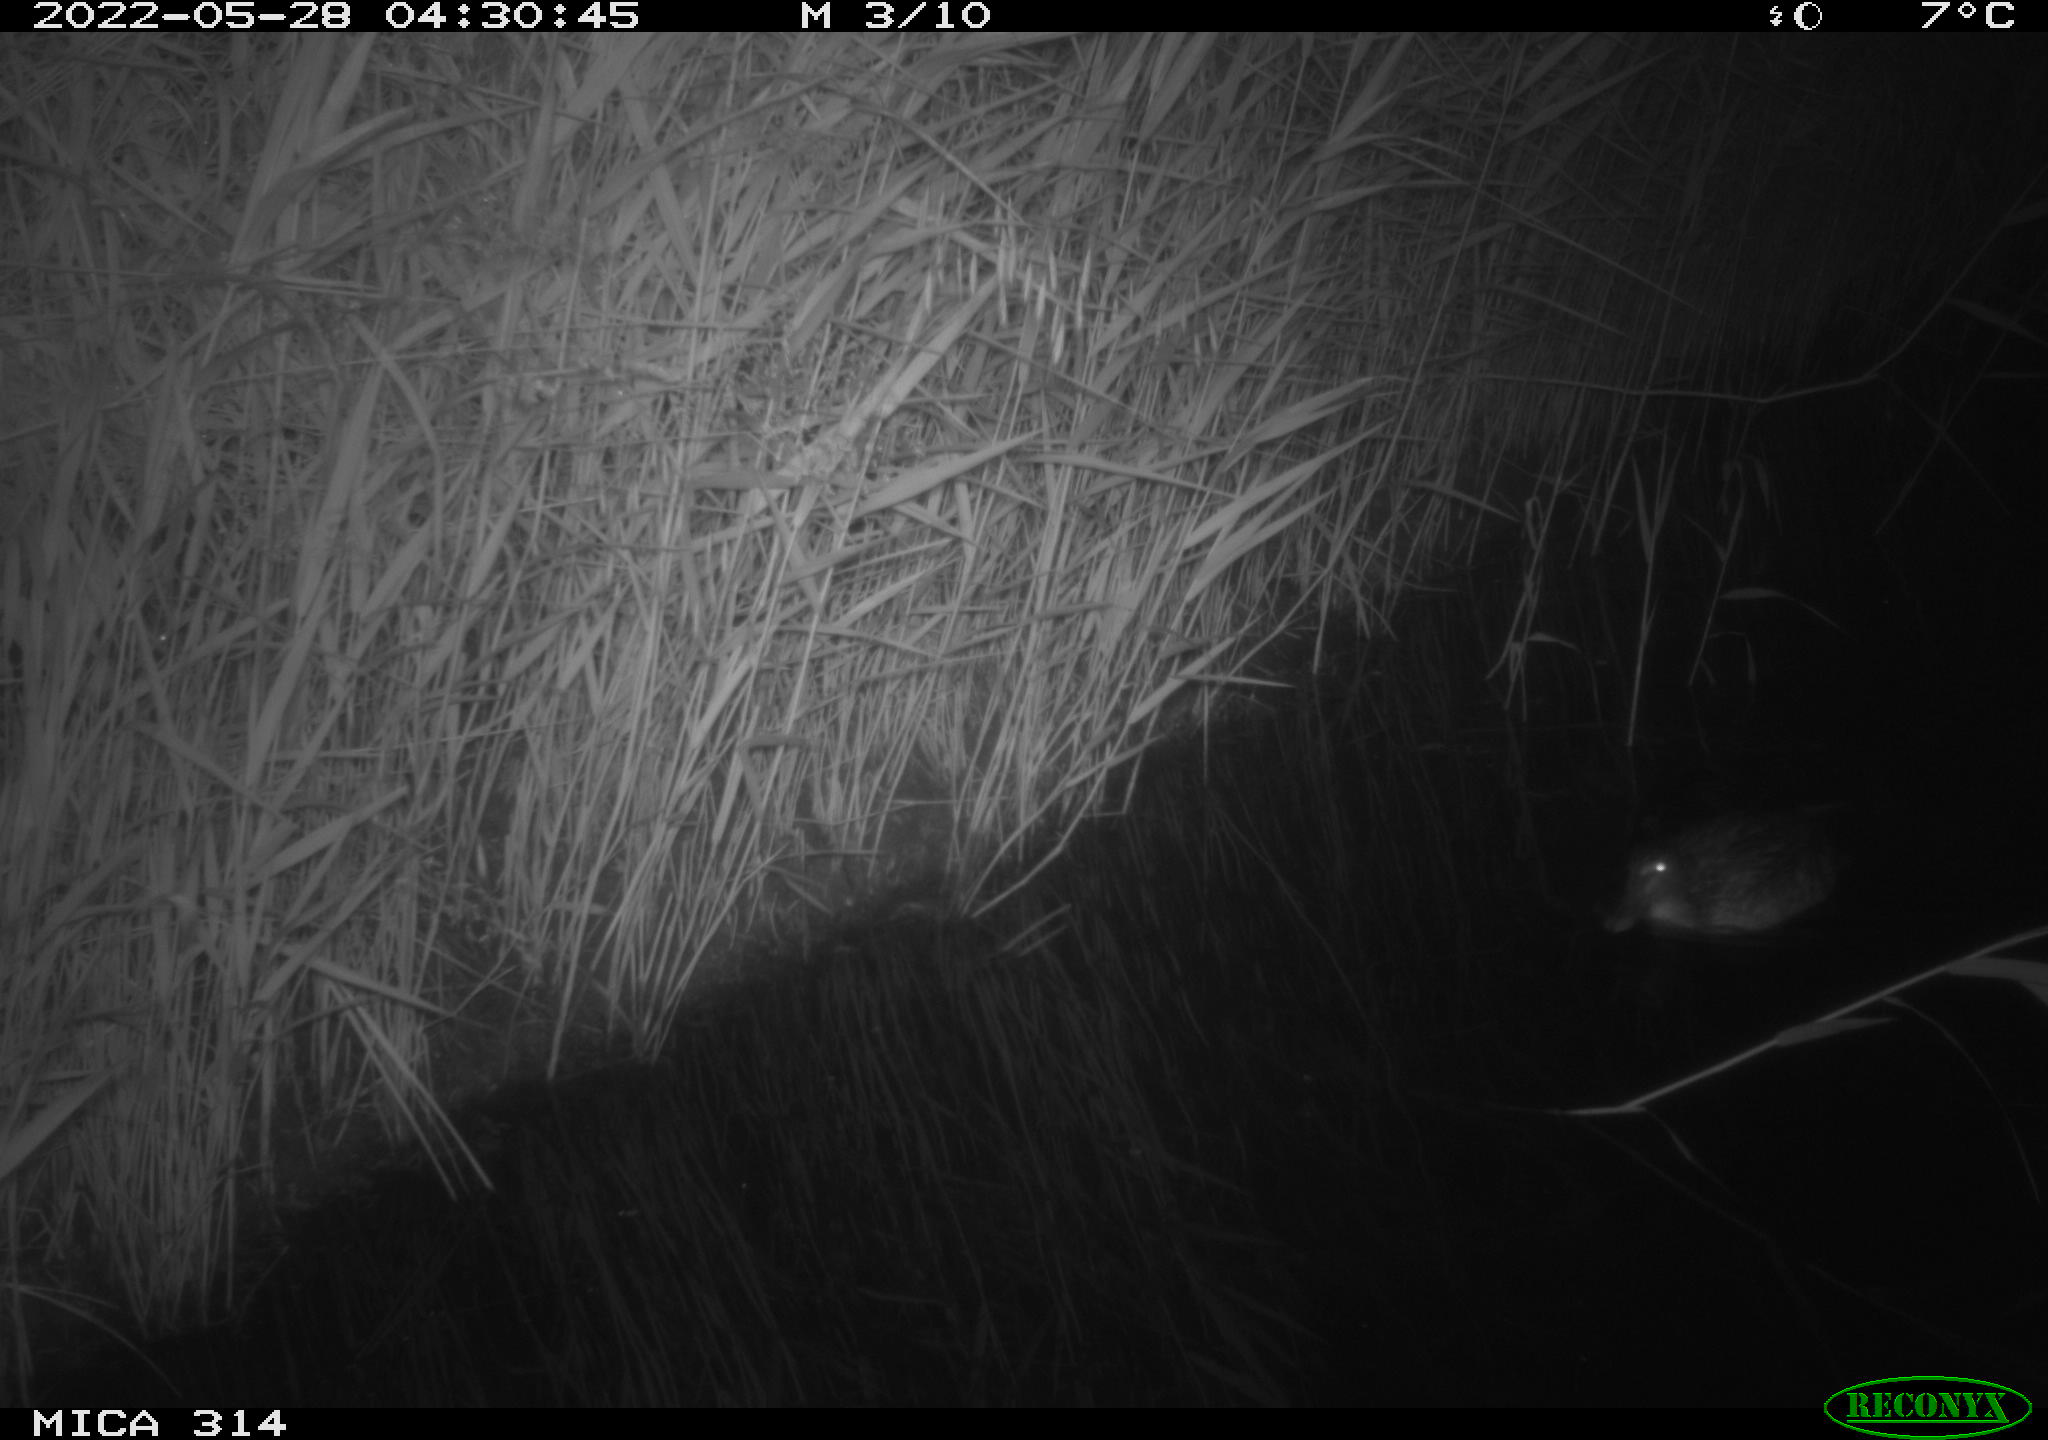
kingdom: Animalia
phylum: Chordata
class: Aves
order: Anseriformes
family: Anatidae
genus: Anas
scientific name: Anas platyrhynchos
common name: Mallard
